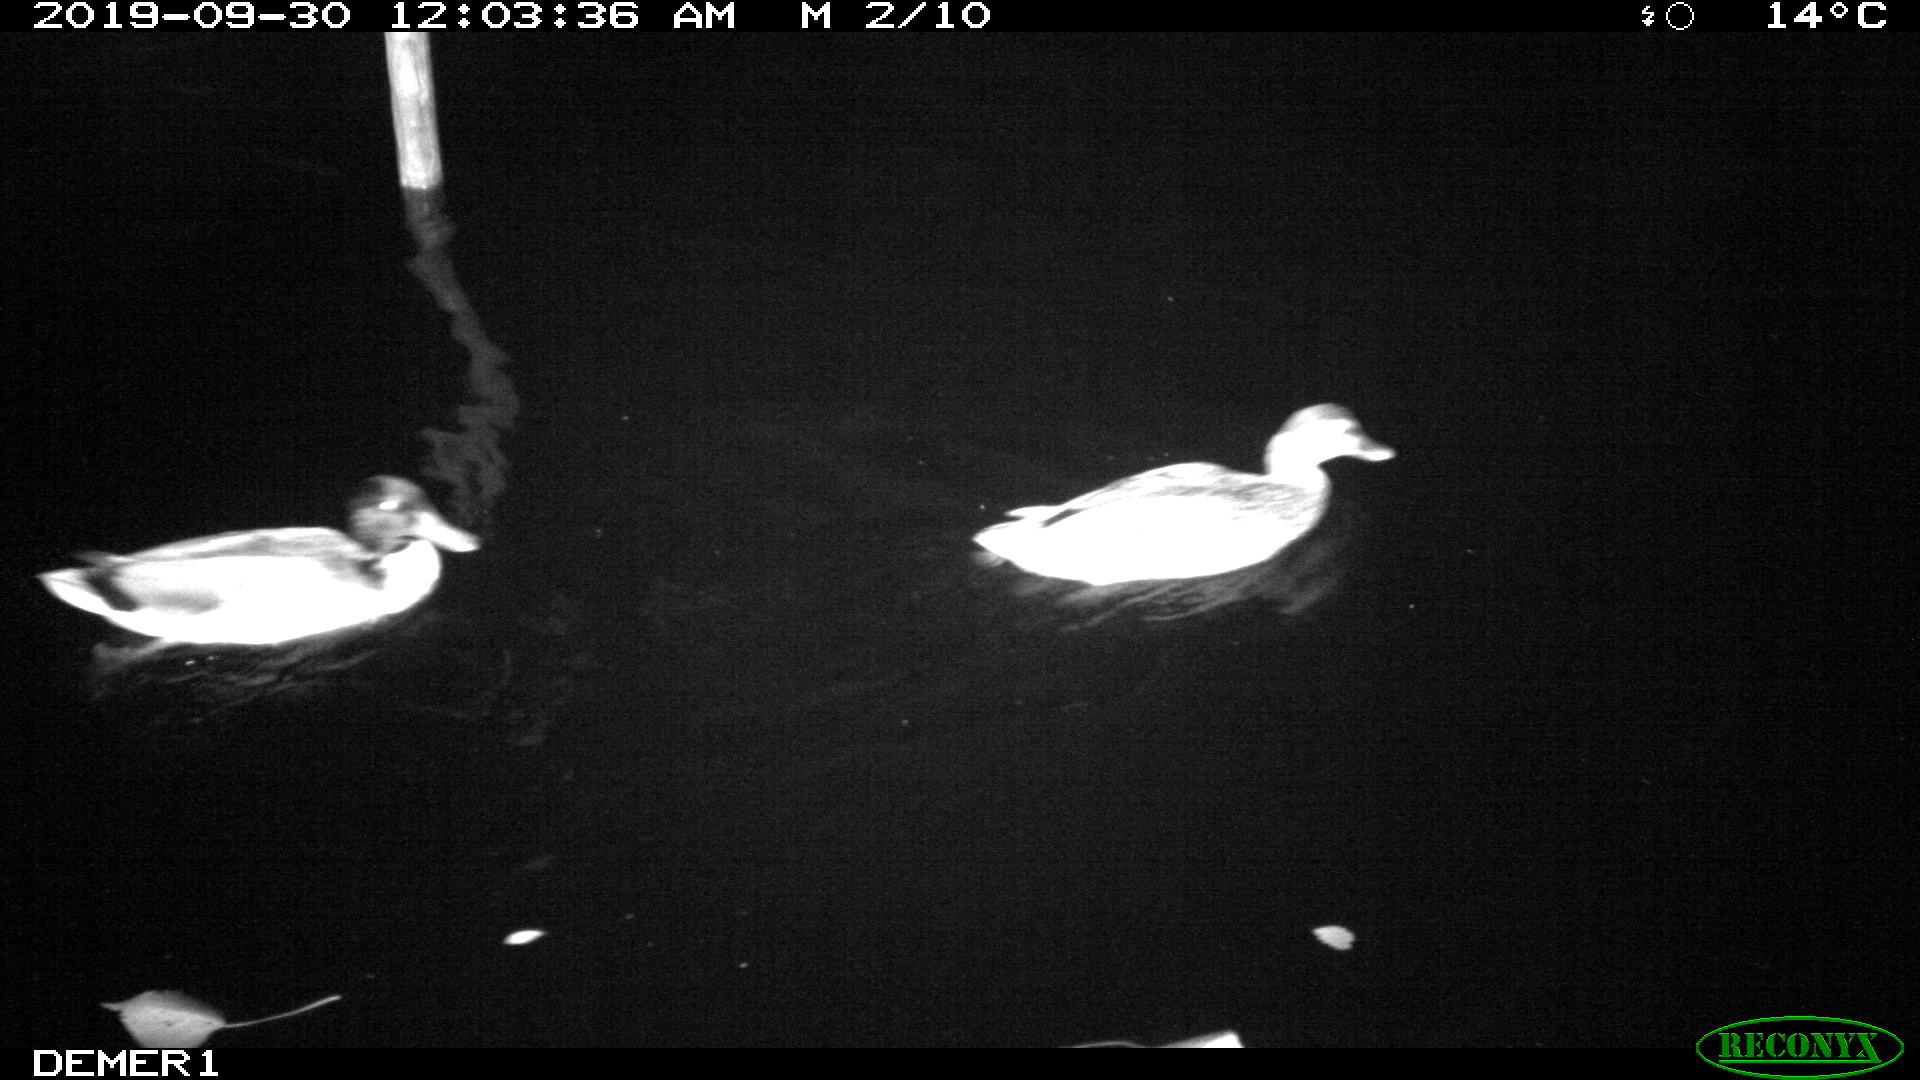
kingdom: Animalia
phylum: Chordata
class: Aves
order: Anseriformes
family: Anatidae
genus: Anas
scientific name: Anas platyrhynchos
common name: Mallard
